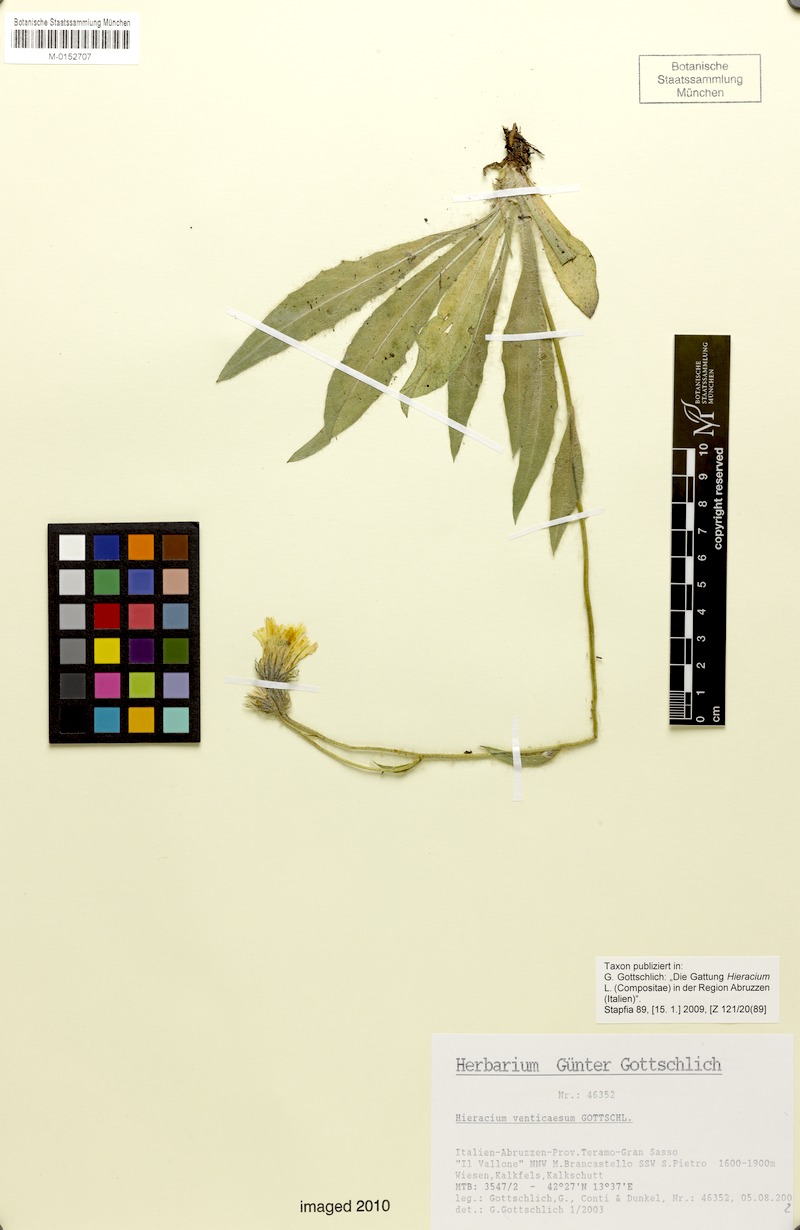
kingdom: Plantae
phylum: Tracheophyta
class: Magnoliopsida
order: Asterales
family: Asteraceae
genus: Hieracium
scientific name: Hieracium venticaesum
